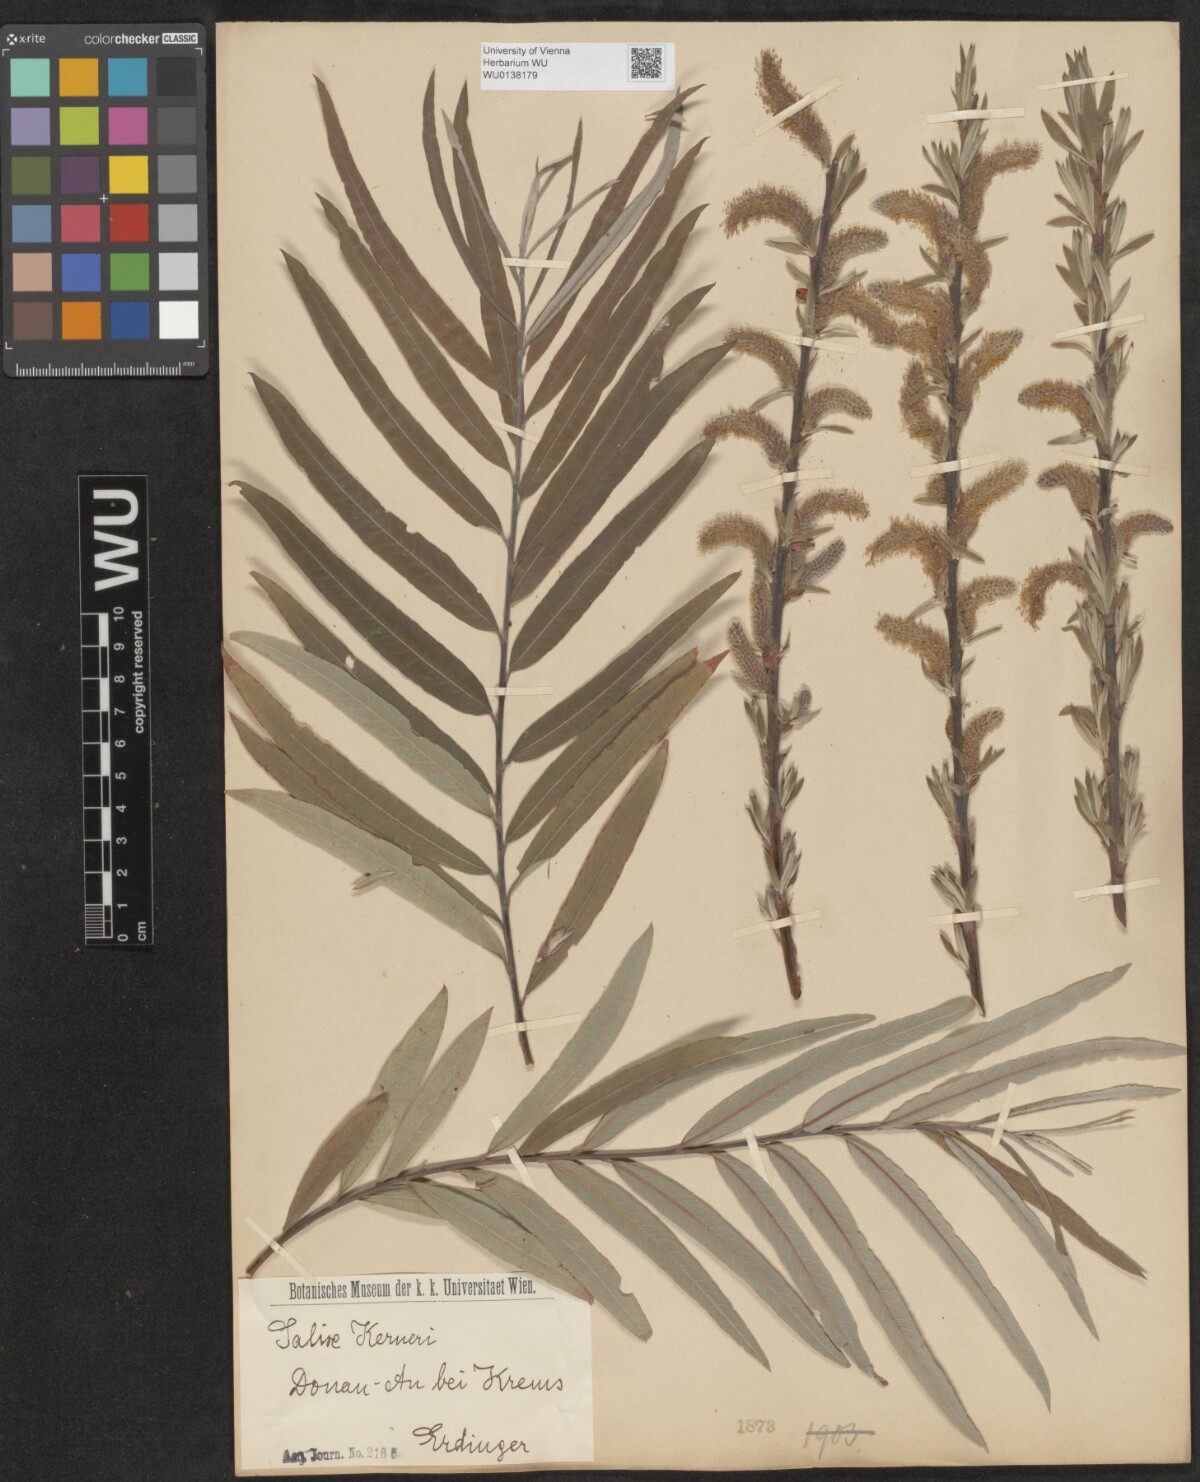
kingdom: Plantae
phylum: Tracheophyta
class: Magnoliopsida
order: Malpighiales
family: Salicaceae
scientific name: Salicaceae
